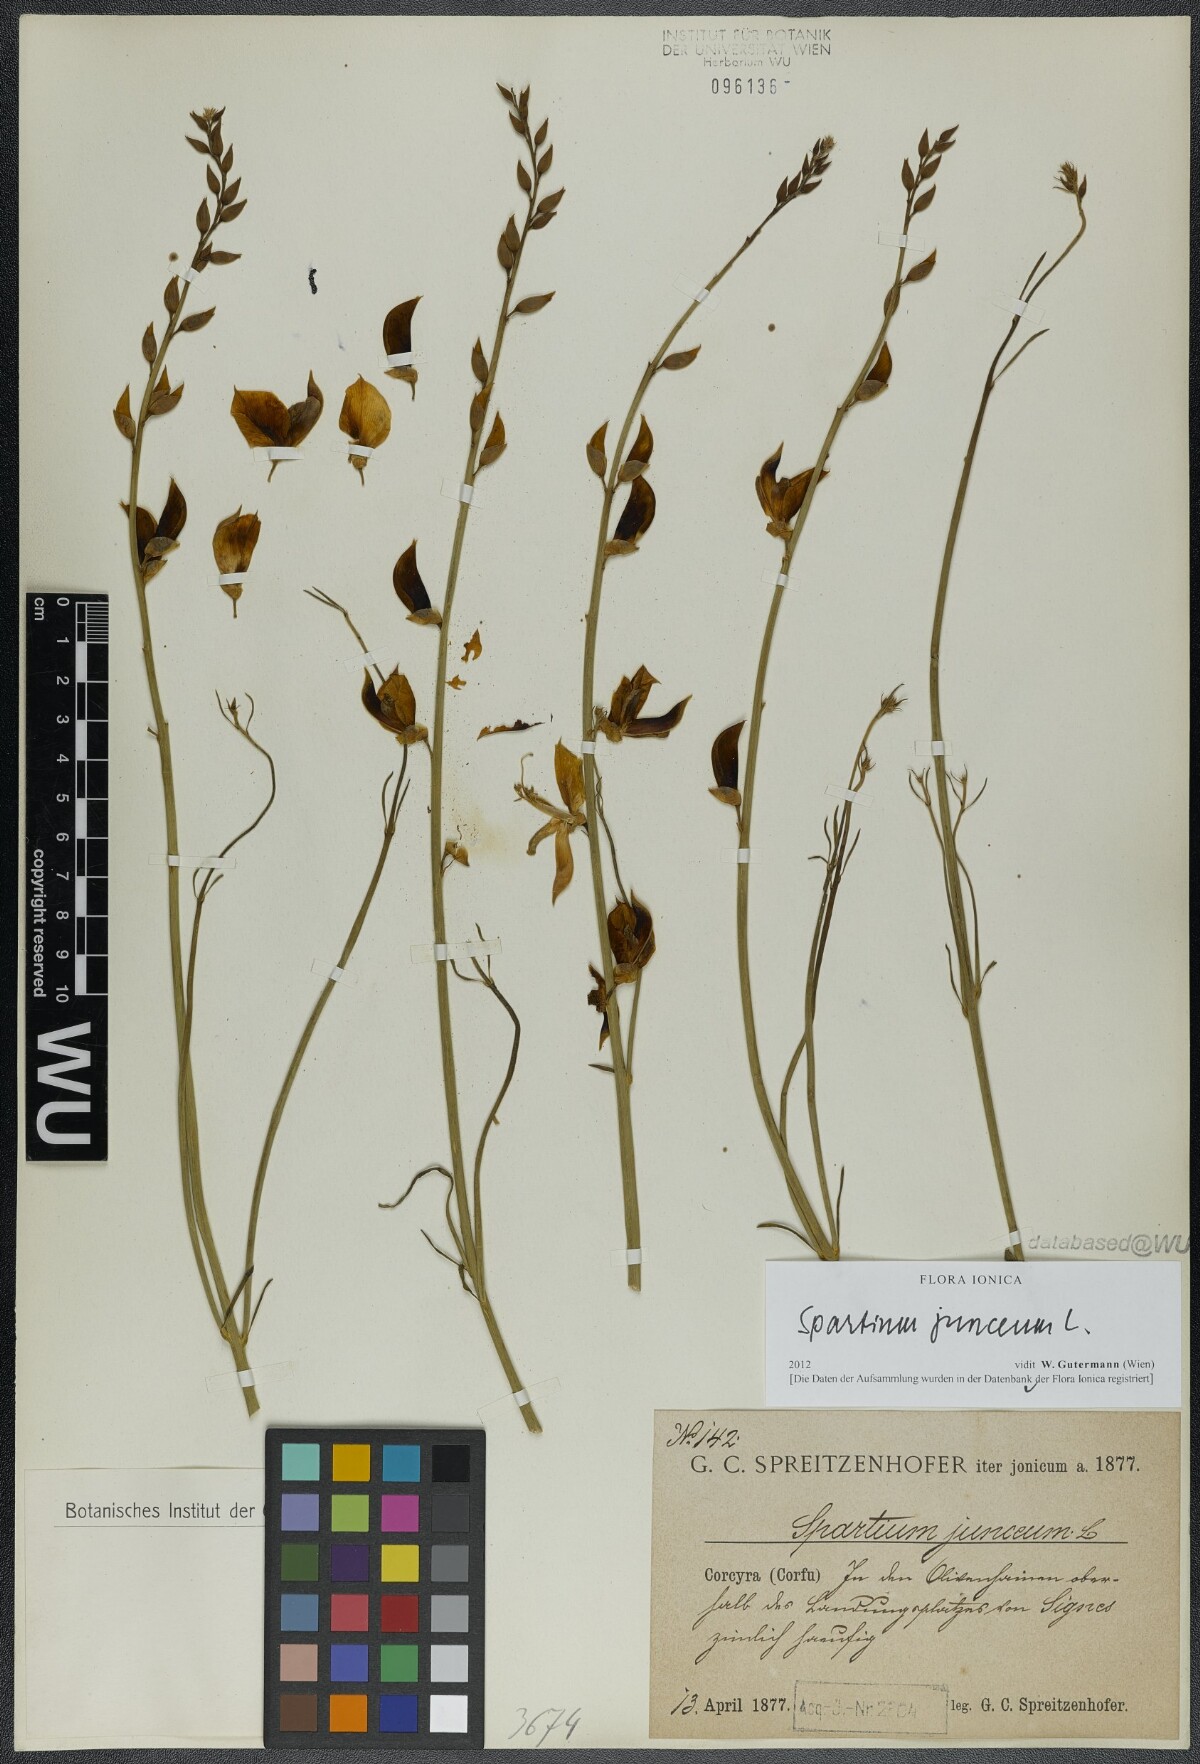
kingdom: Plantae
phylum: Tracheophyta
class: Magnoliopsida
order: Fabales
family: Fabaceae
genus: Spartium
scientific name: Spartium junceum
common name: Spanish broom
